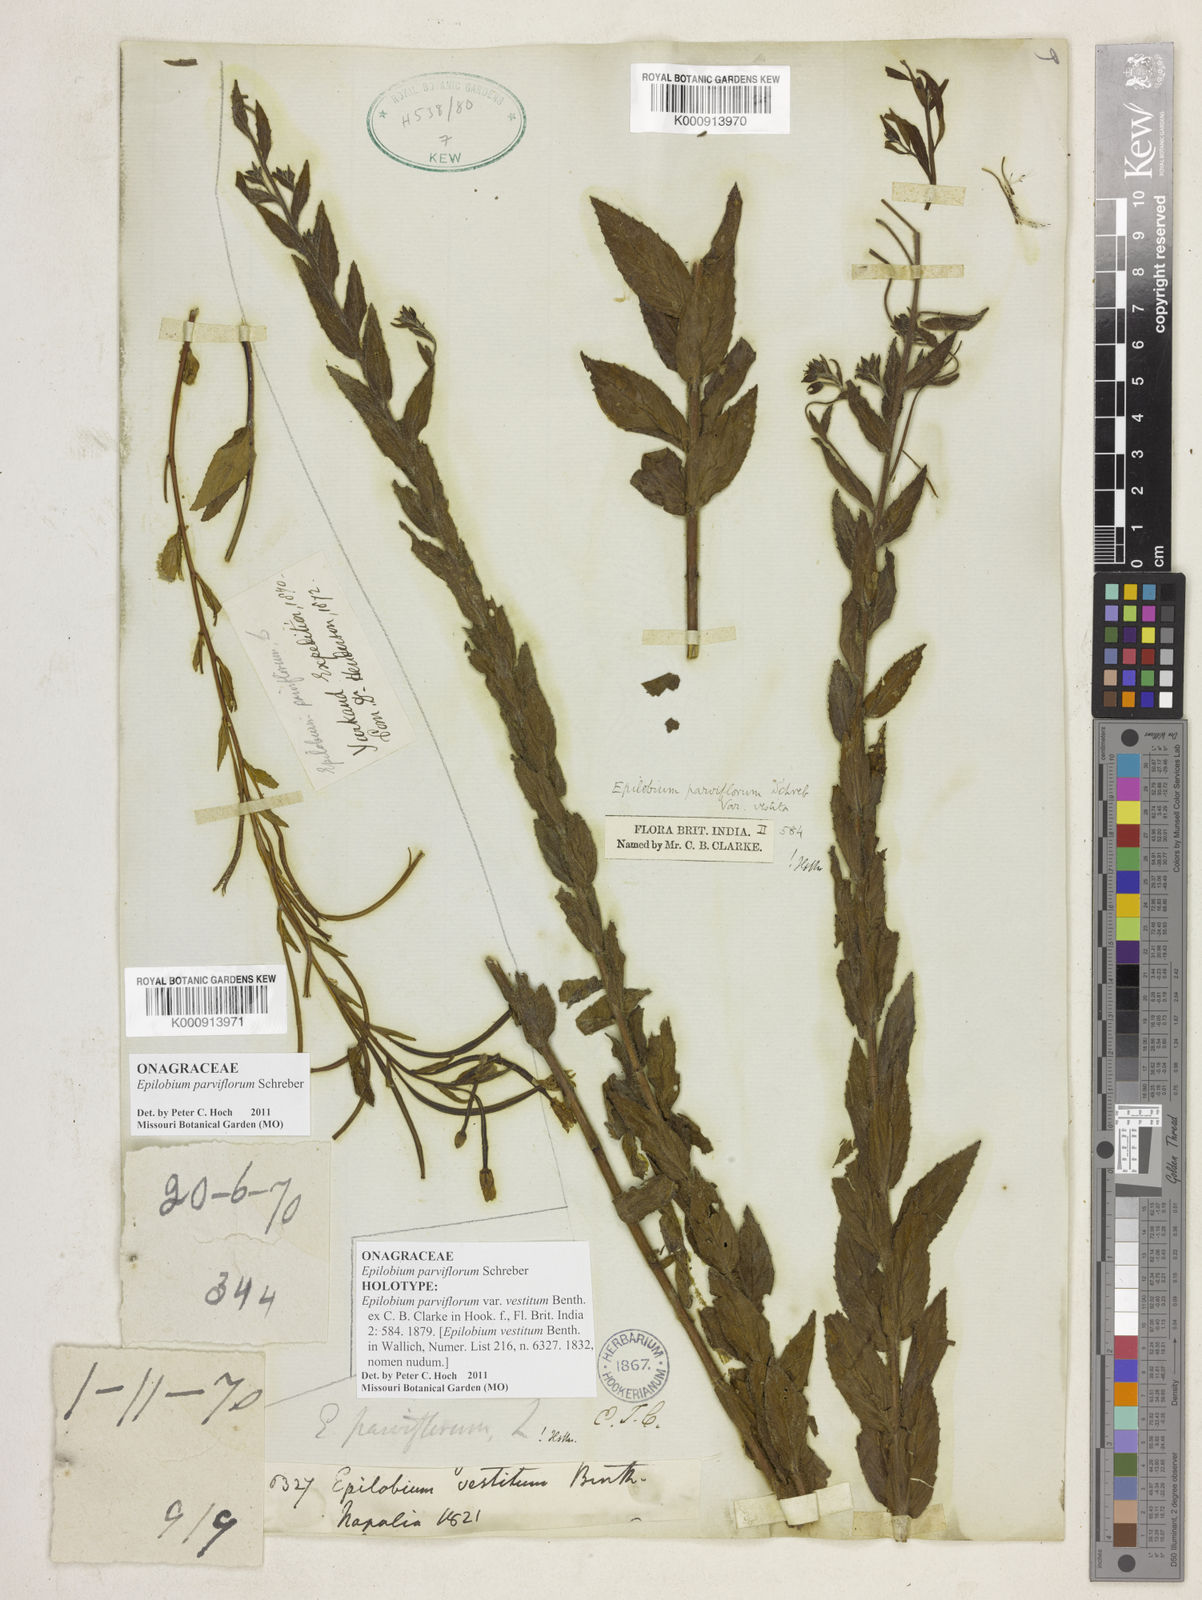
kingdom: Plantae
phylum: Tracheophyta
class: Magnoliopsida
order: Myrtales
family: Onagraceae
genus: Epilobium
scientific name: Epilobium parviflorum
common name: Hoary willowherb
